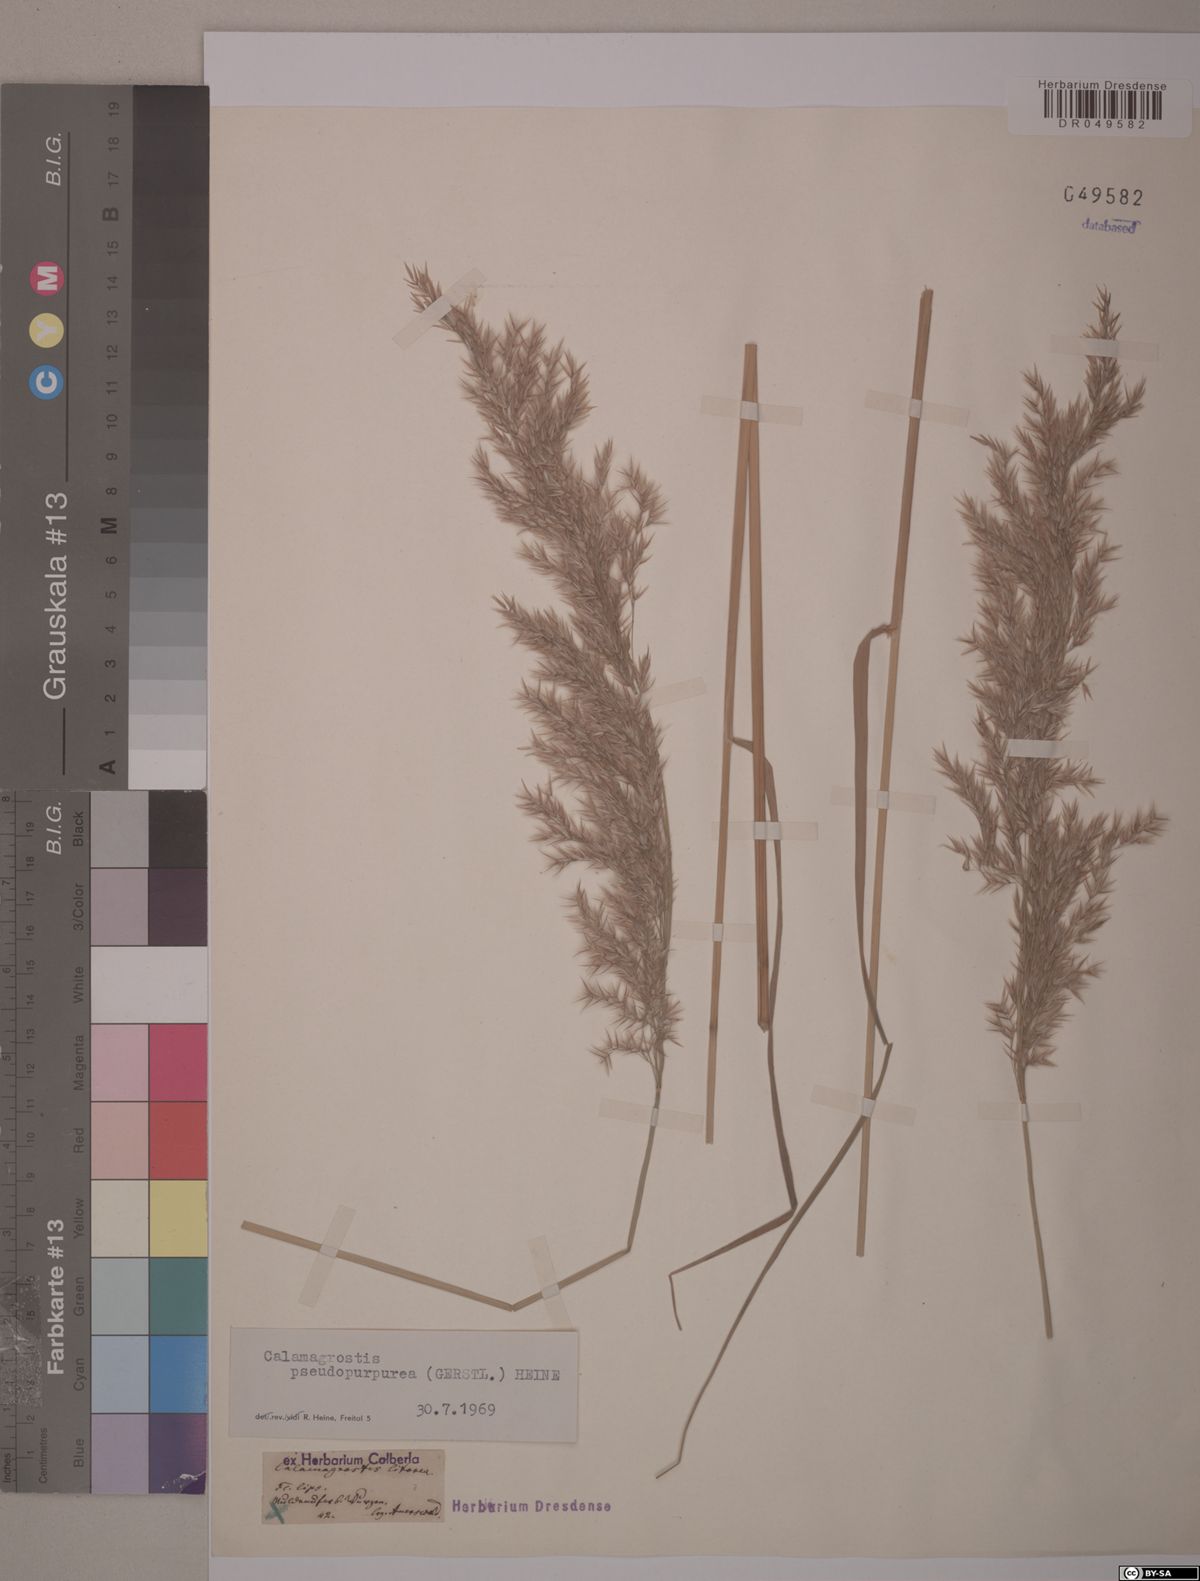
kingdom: Plantae
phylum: Tracheophyta
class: Liliopsida
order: Poales
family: Poaceae
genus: Calamagrostis
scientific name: Calamagrostis purpurea
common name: Scandinavian small-reed
